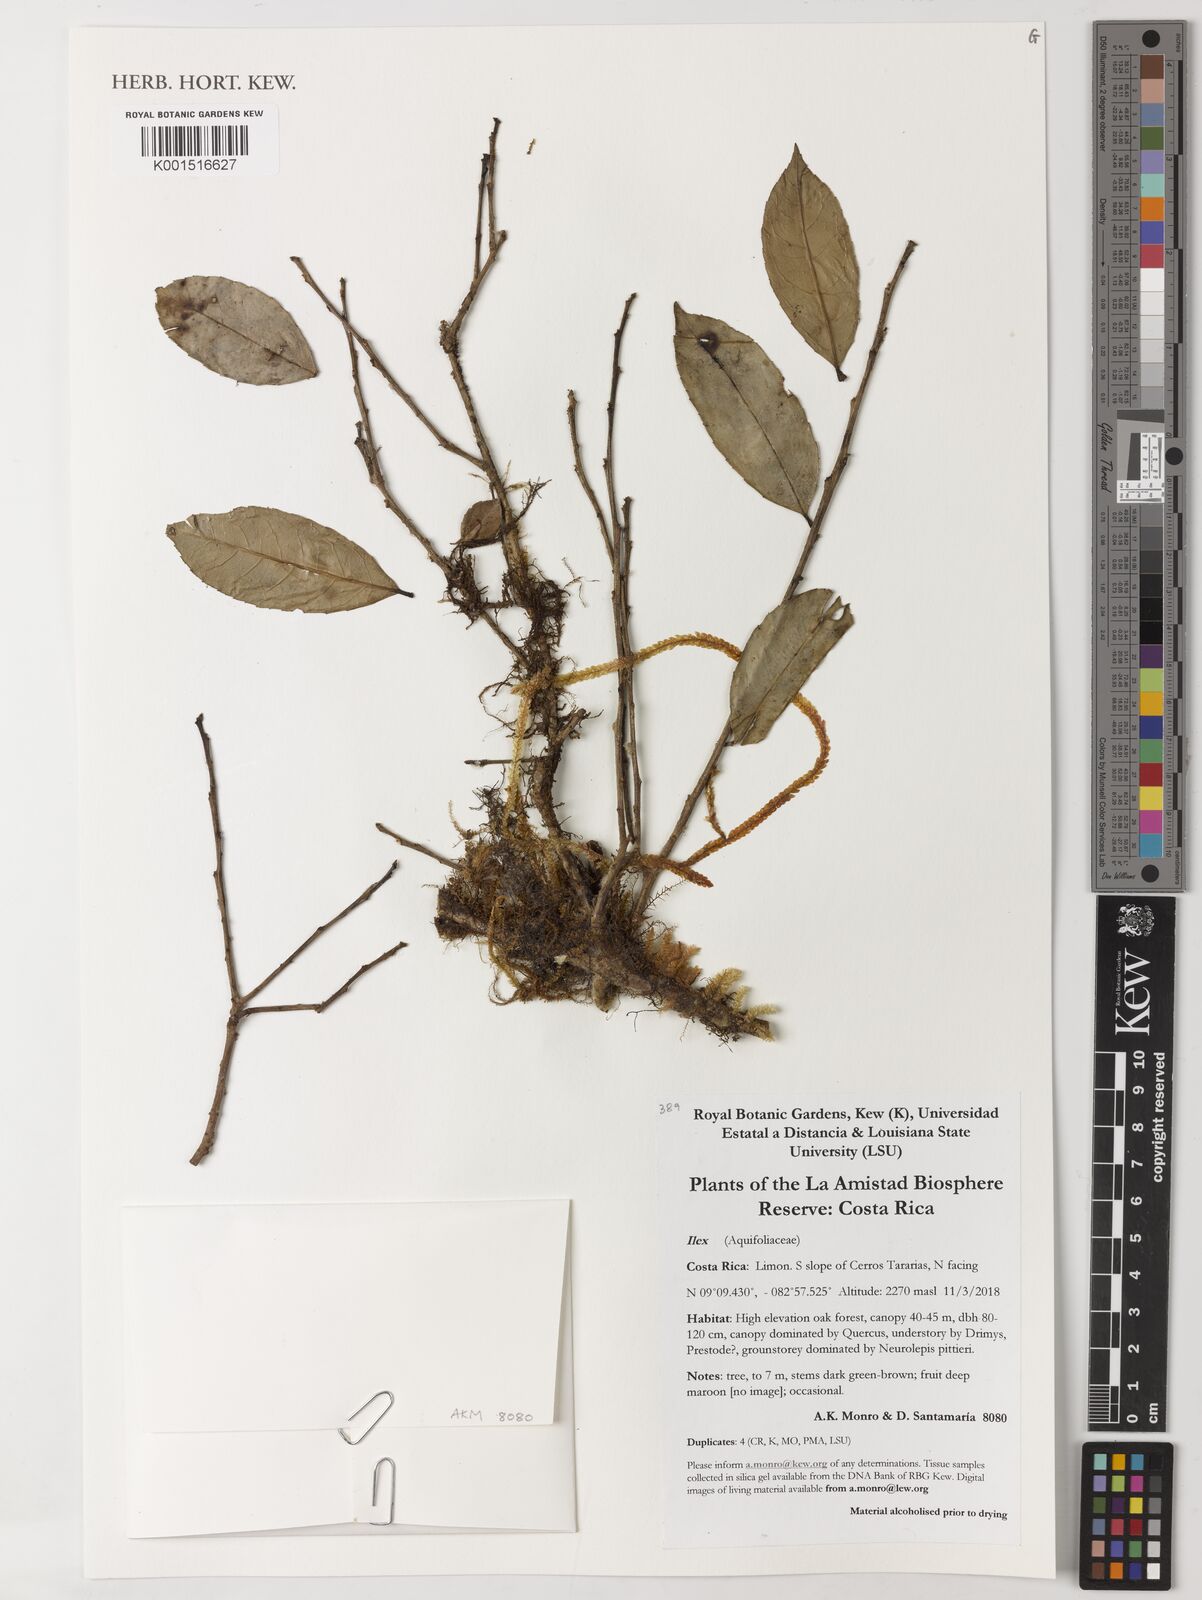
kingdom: Plantae
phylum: Tracheophyta
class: Magnoliopsida
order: Aquifoliales
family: Aquifoliaceae
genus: Ilex
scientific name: Ilex
